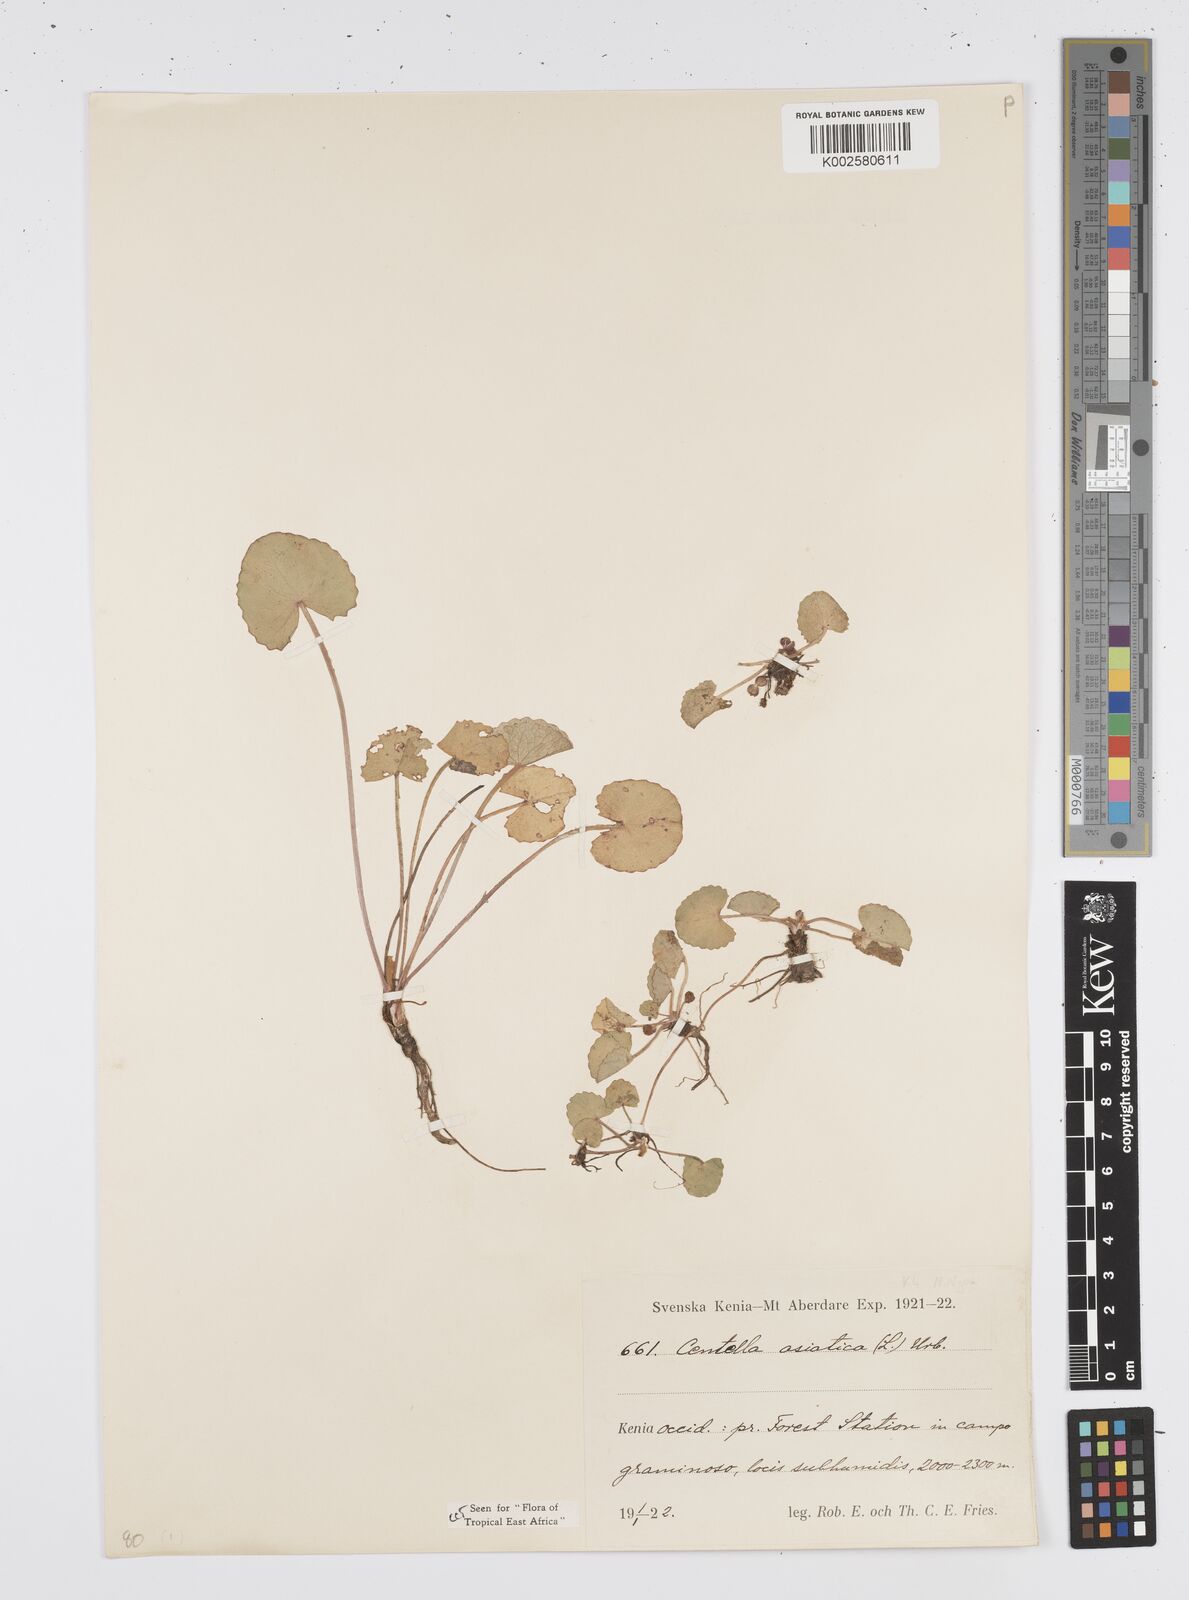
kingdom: Plantae
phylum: Tracheophyta
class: Magnoliopsida
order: Apiales
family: Apiaceae
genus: Centella
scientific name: Centella asiatica
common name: Spadeleaf
